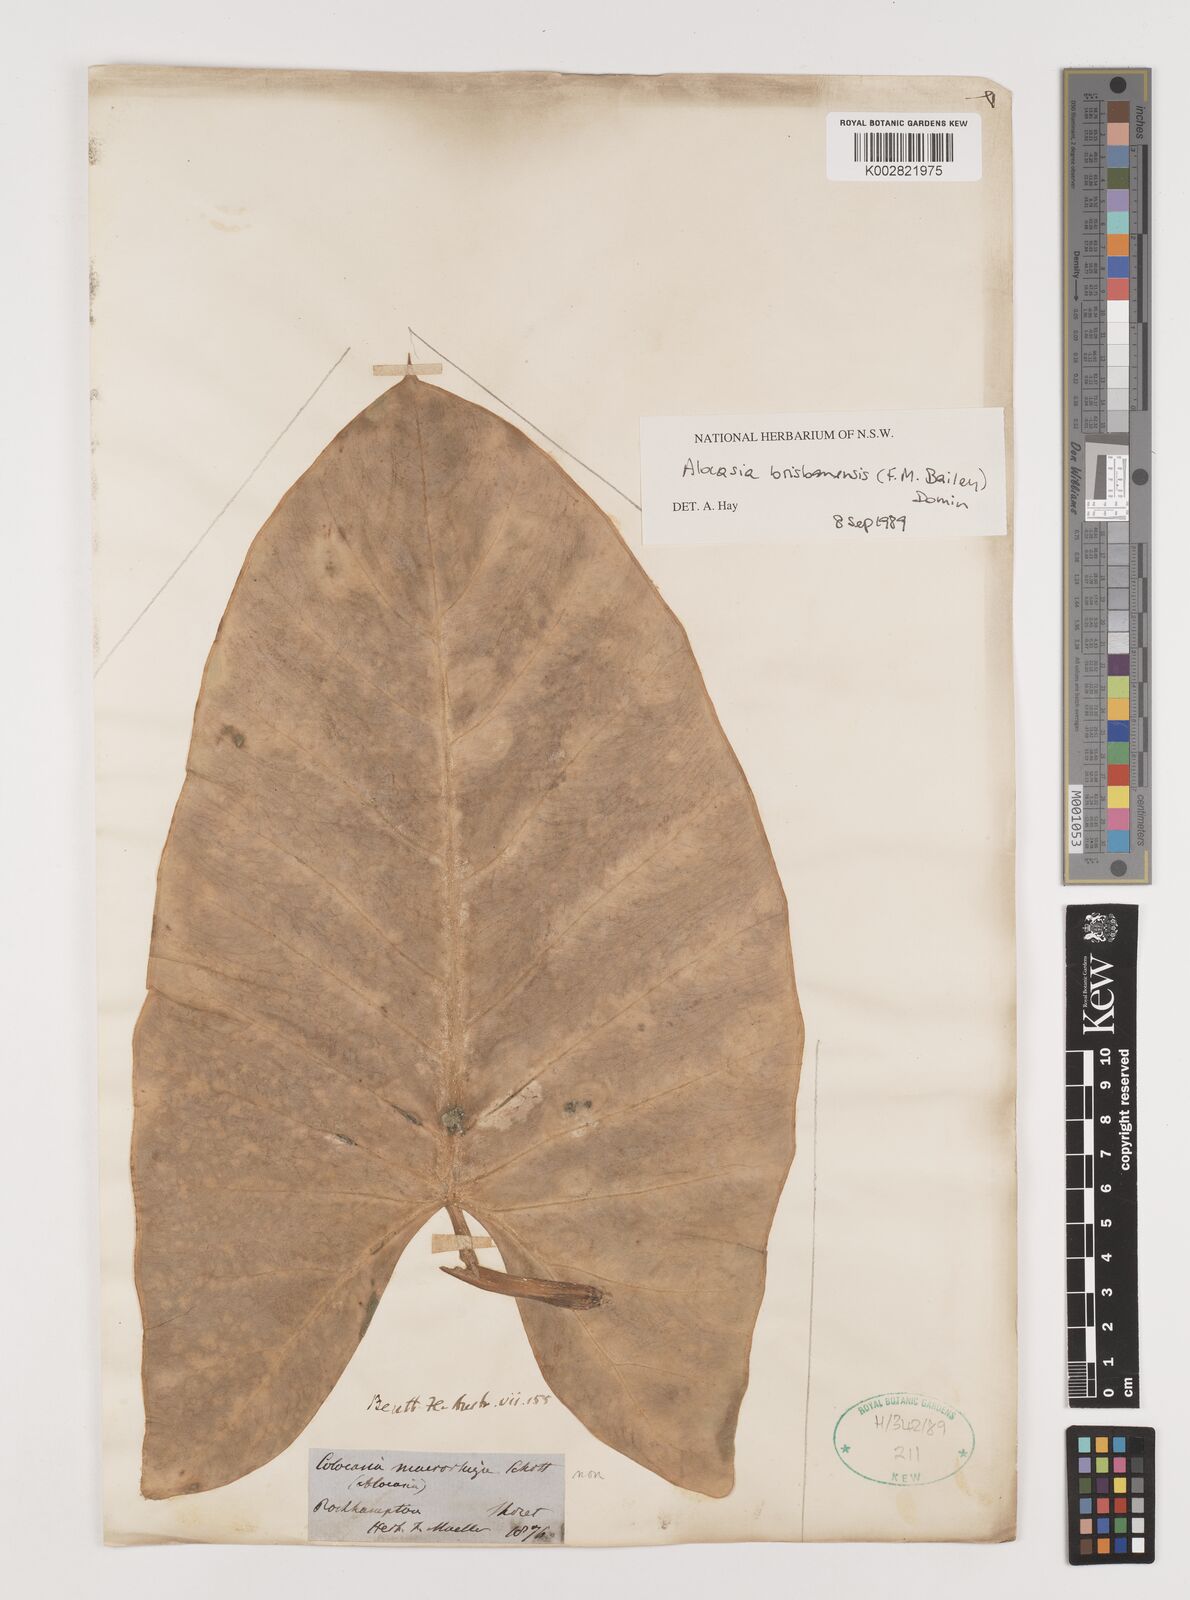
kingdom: Plantae
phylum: Tracheophyta
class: Liliopsida
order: Alismatales
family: Araceae
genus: Alocasia
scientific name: Alocasia brisbanensis
